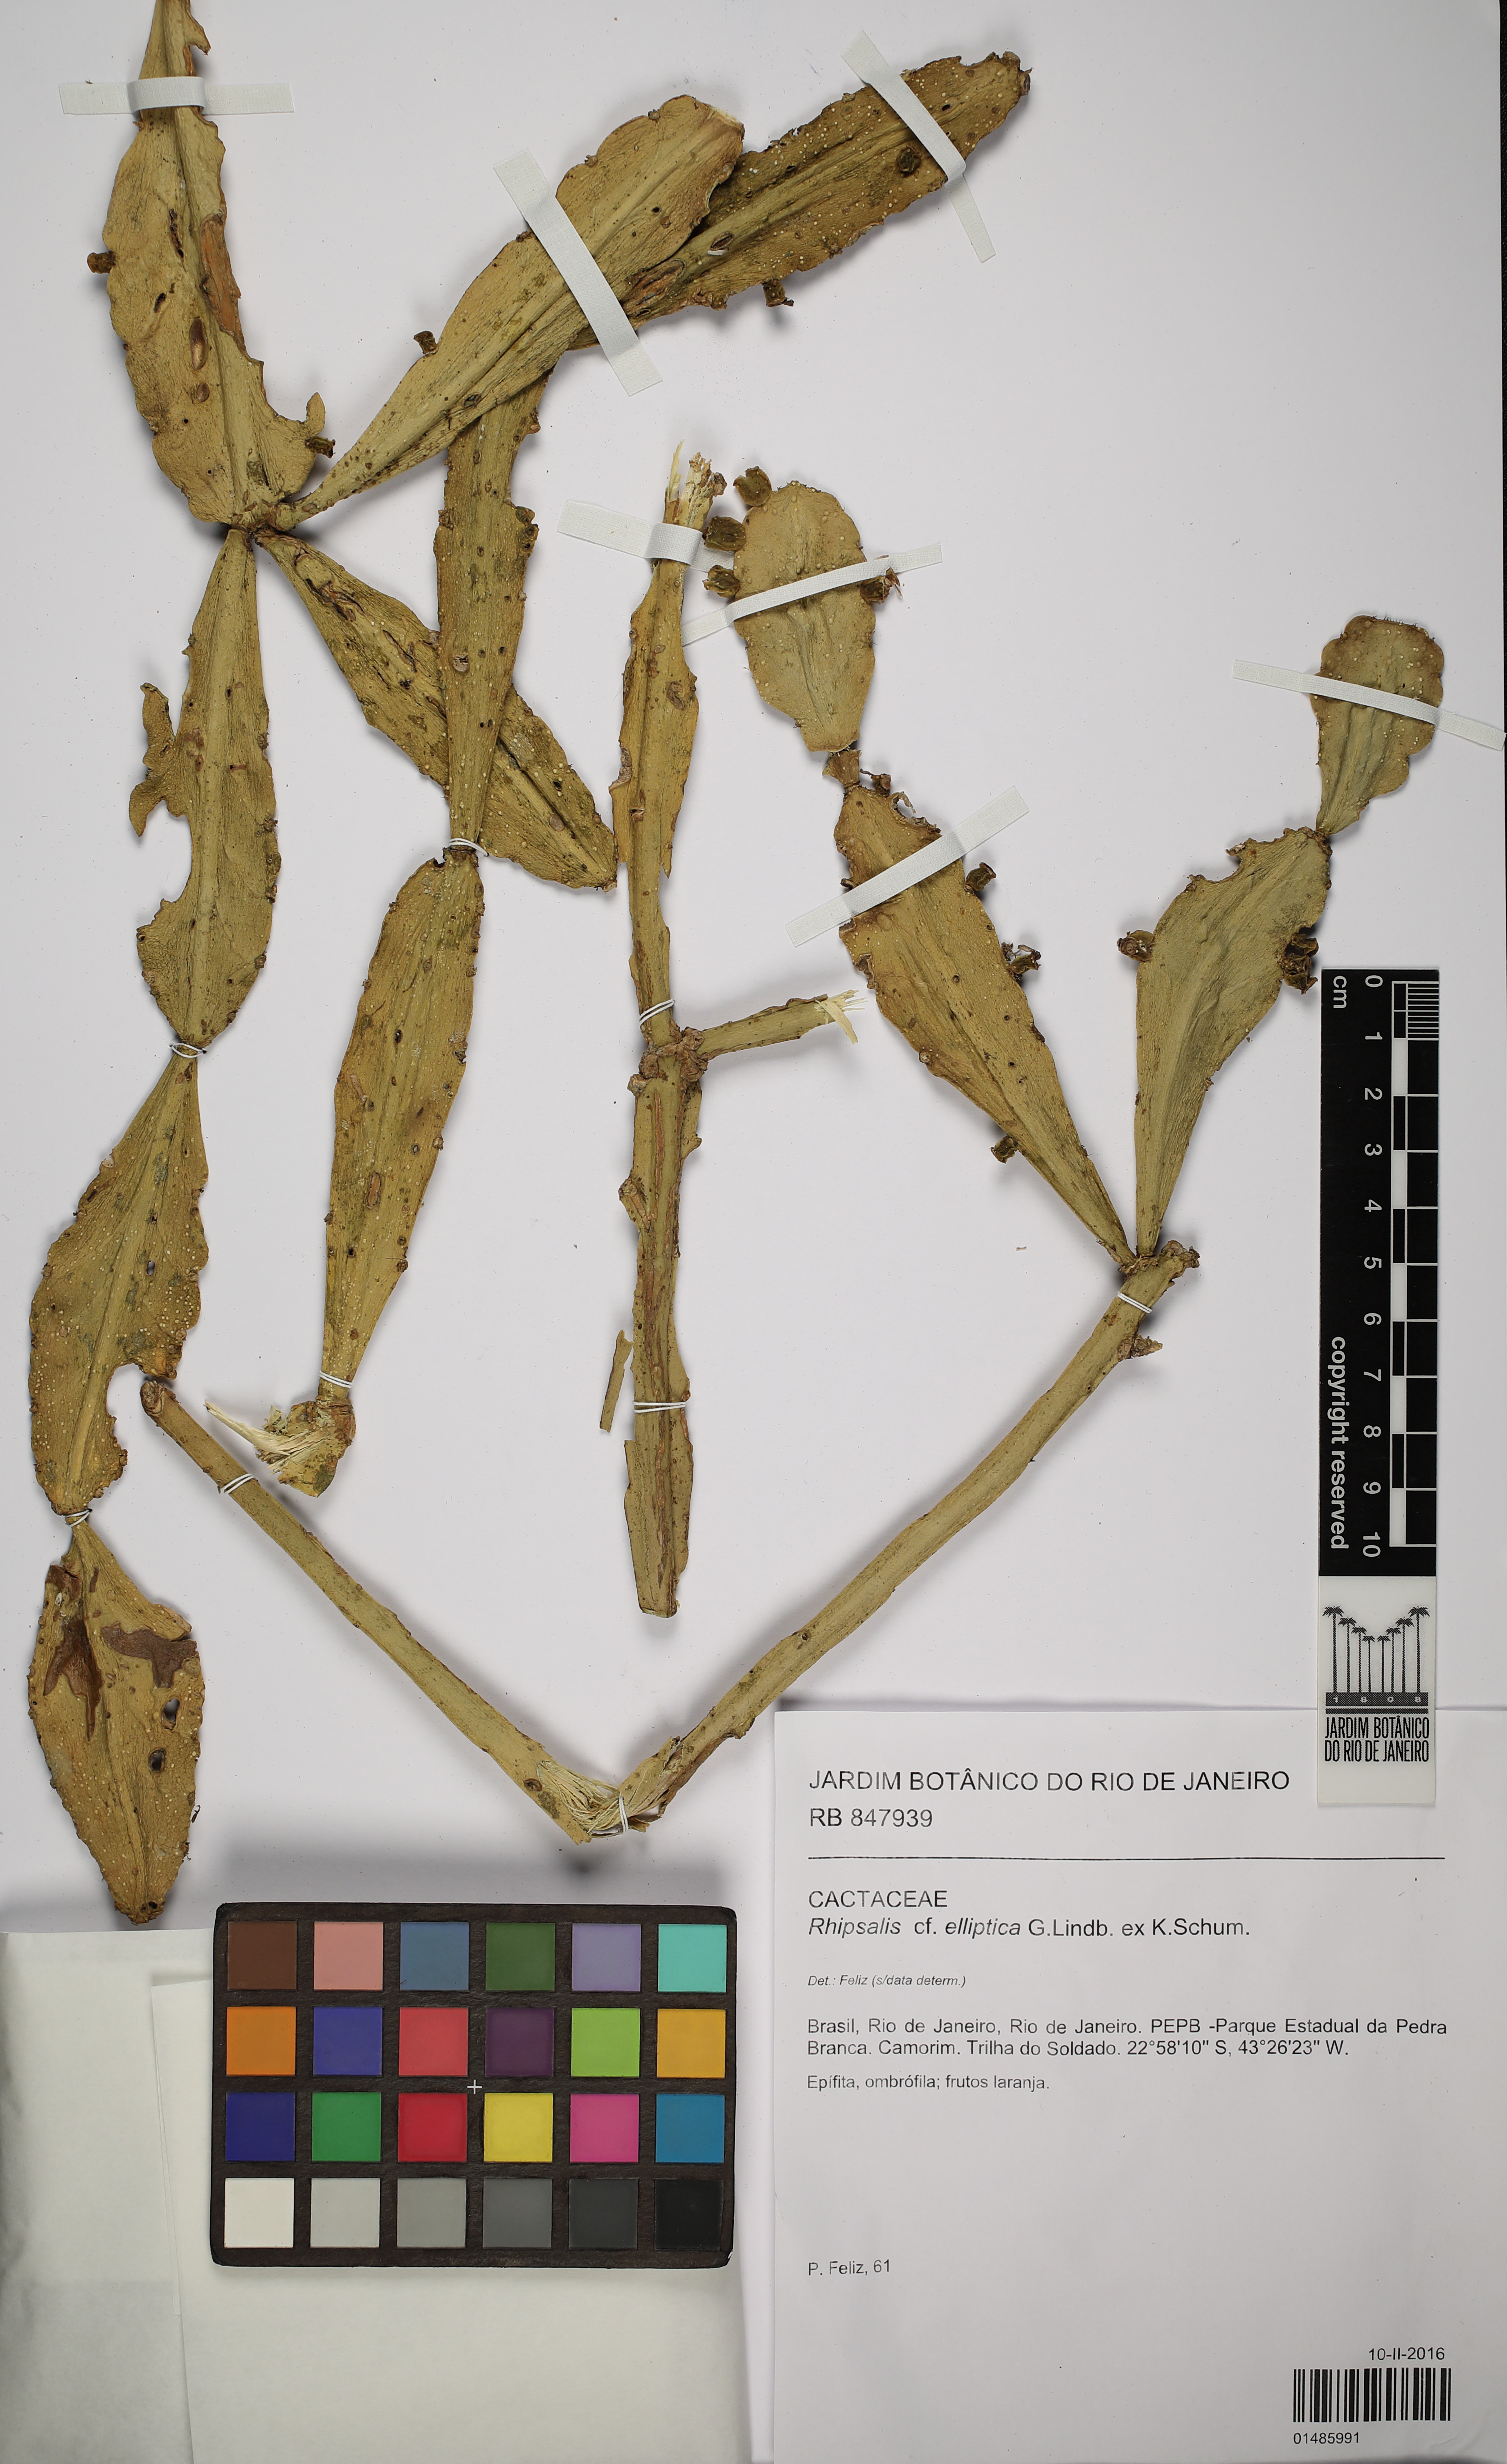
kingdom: Plantae
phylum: Tracheophyta
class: Magnoliopsida
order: Caryophyllales
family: Cactaceae
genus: Rhipsalis
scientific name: Rhipsalis elliptica
